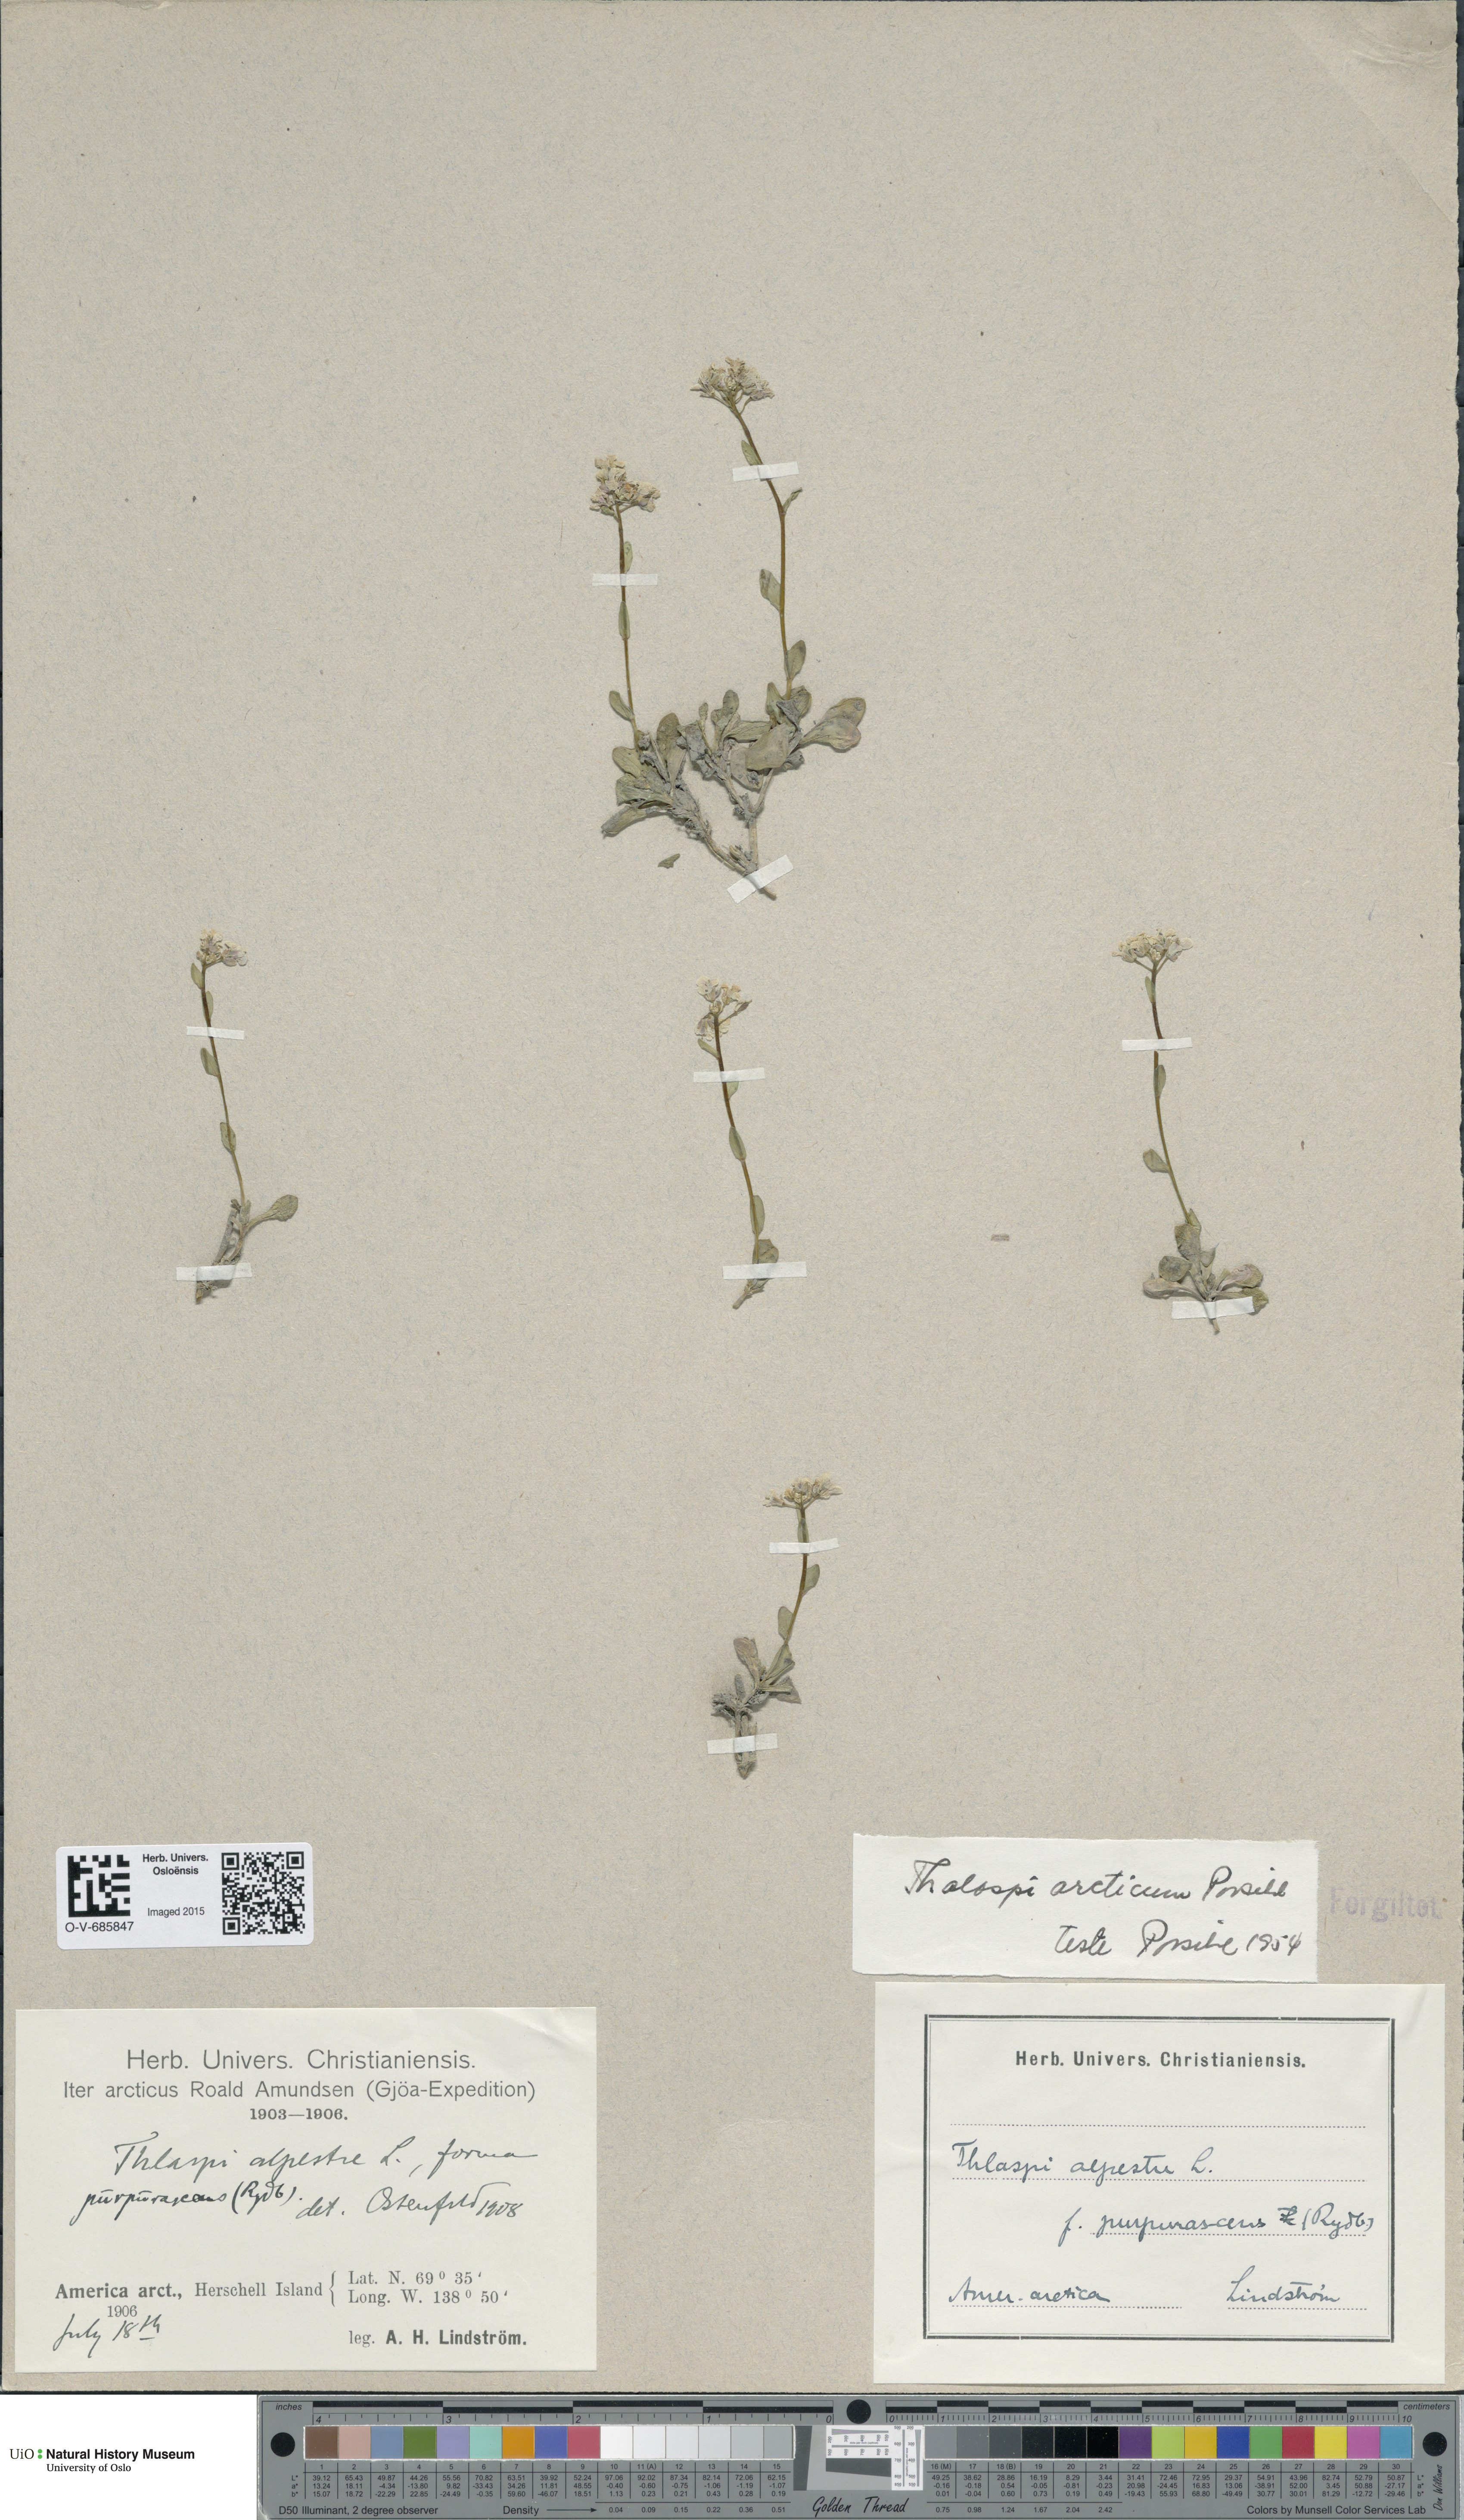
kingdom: Plantae
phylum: Tracheophyta
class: Magnoliopsida
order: Brassicales
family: Brassicaceae
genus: Noccaea
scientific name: Noccaea arctica
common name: Arctic pennycress
